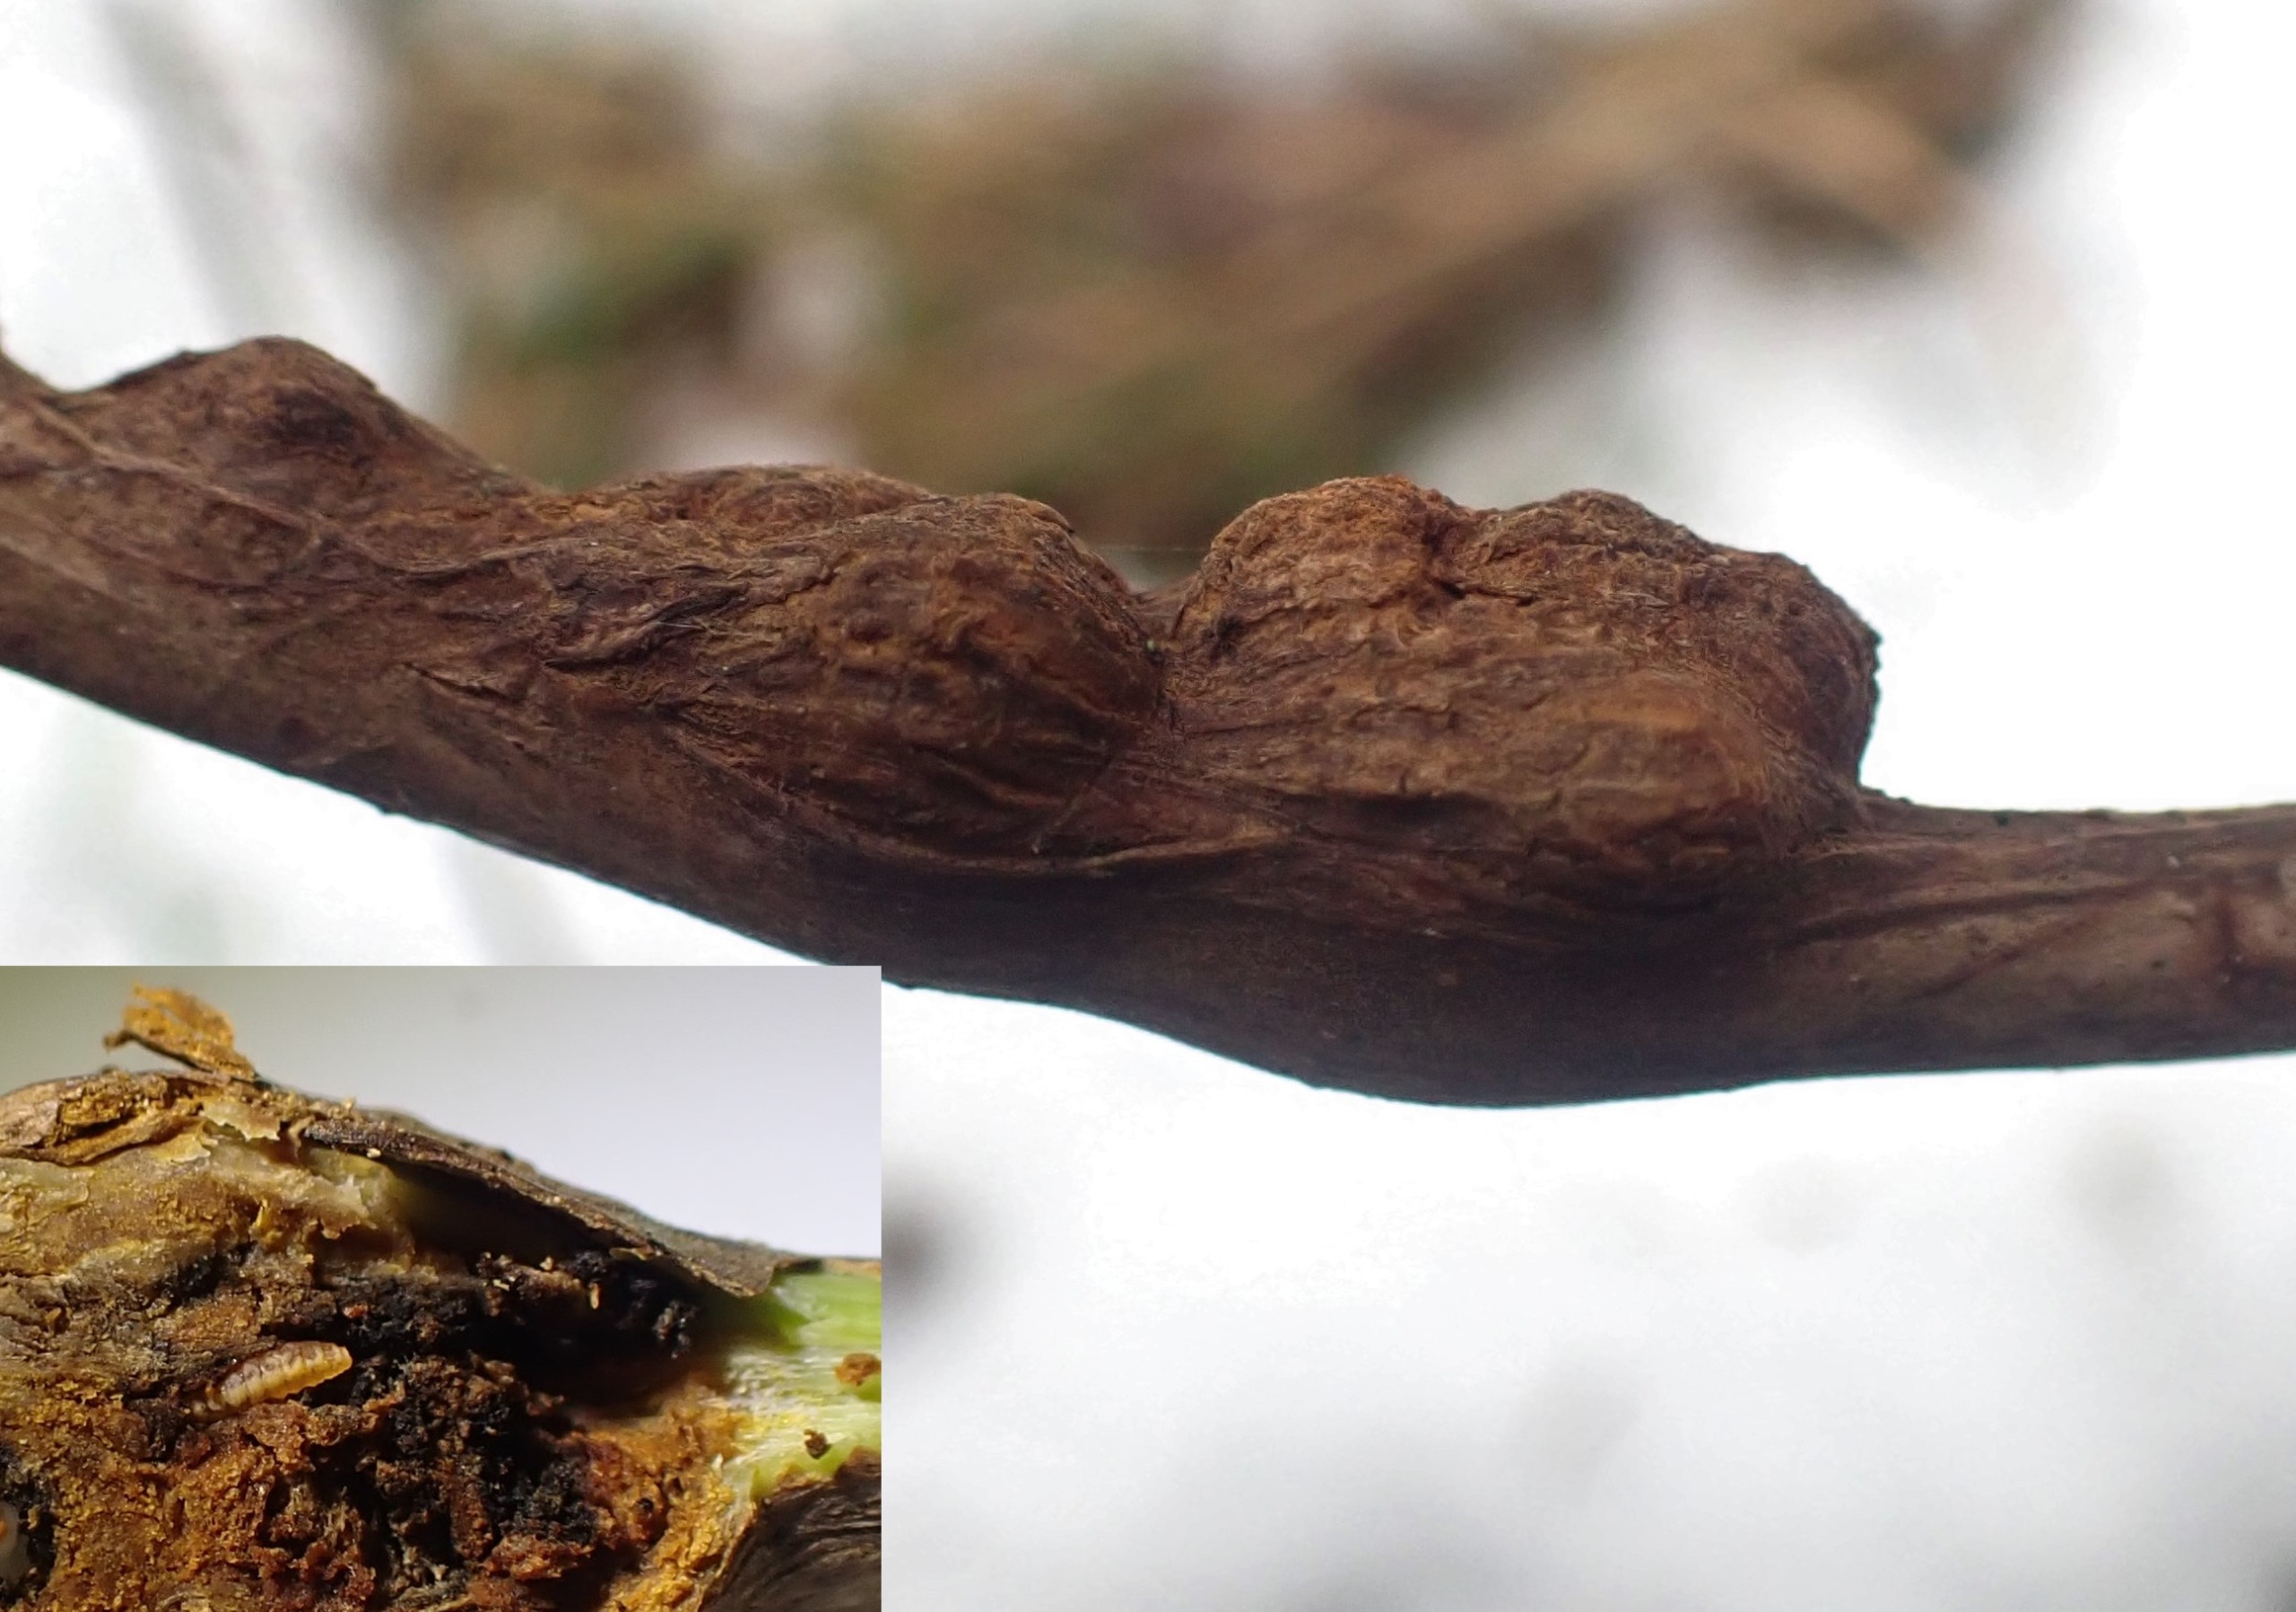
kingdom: Animalia
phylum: Arthropoda
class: Insecta
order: Diptera
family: Cecidomyiidae
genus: Lasioptera
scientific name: Lasioptera rubi
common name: Hindbærstængelgalmyg
